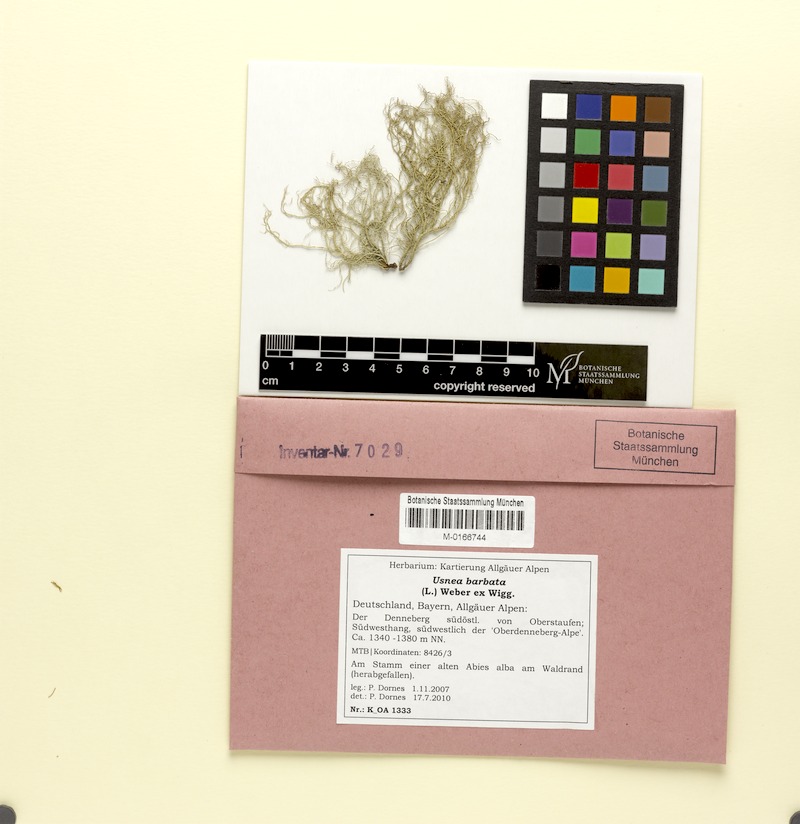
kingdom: Fungi
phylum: Ascomycota
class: Lecanoromycetes
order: Lecanorales
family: Parmeliaceae
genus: Usnea
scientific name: Usnea barbata
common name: Old man's beard lichen
